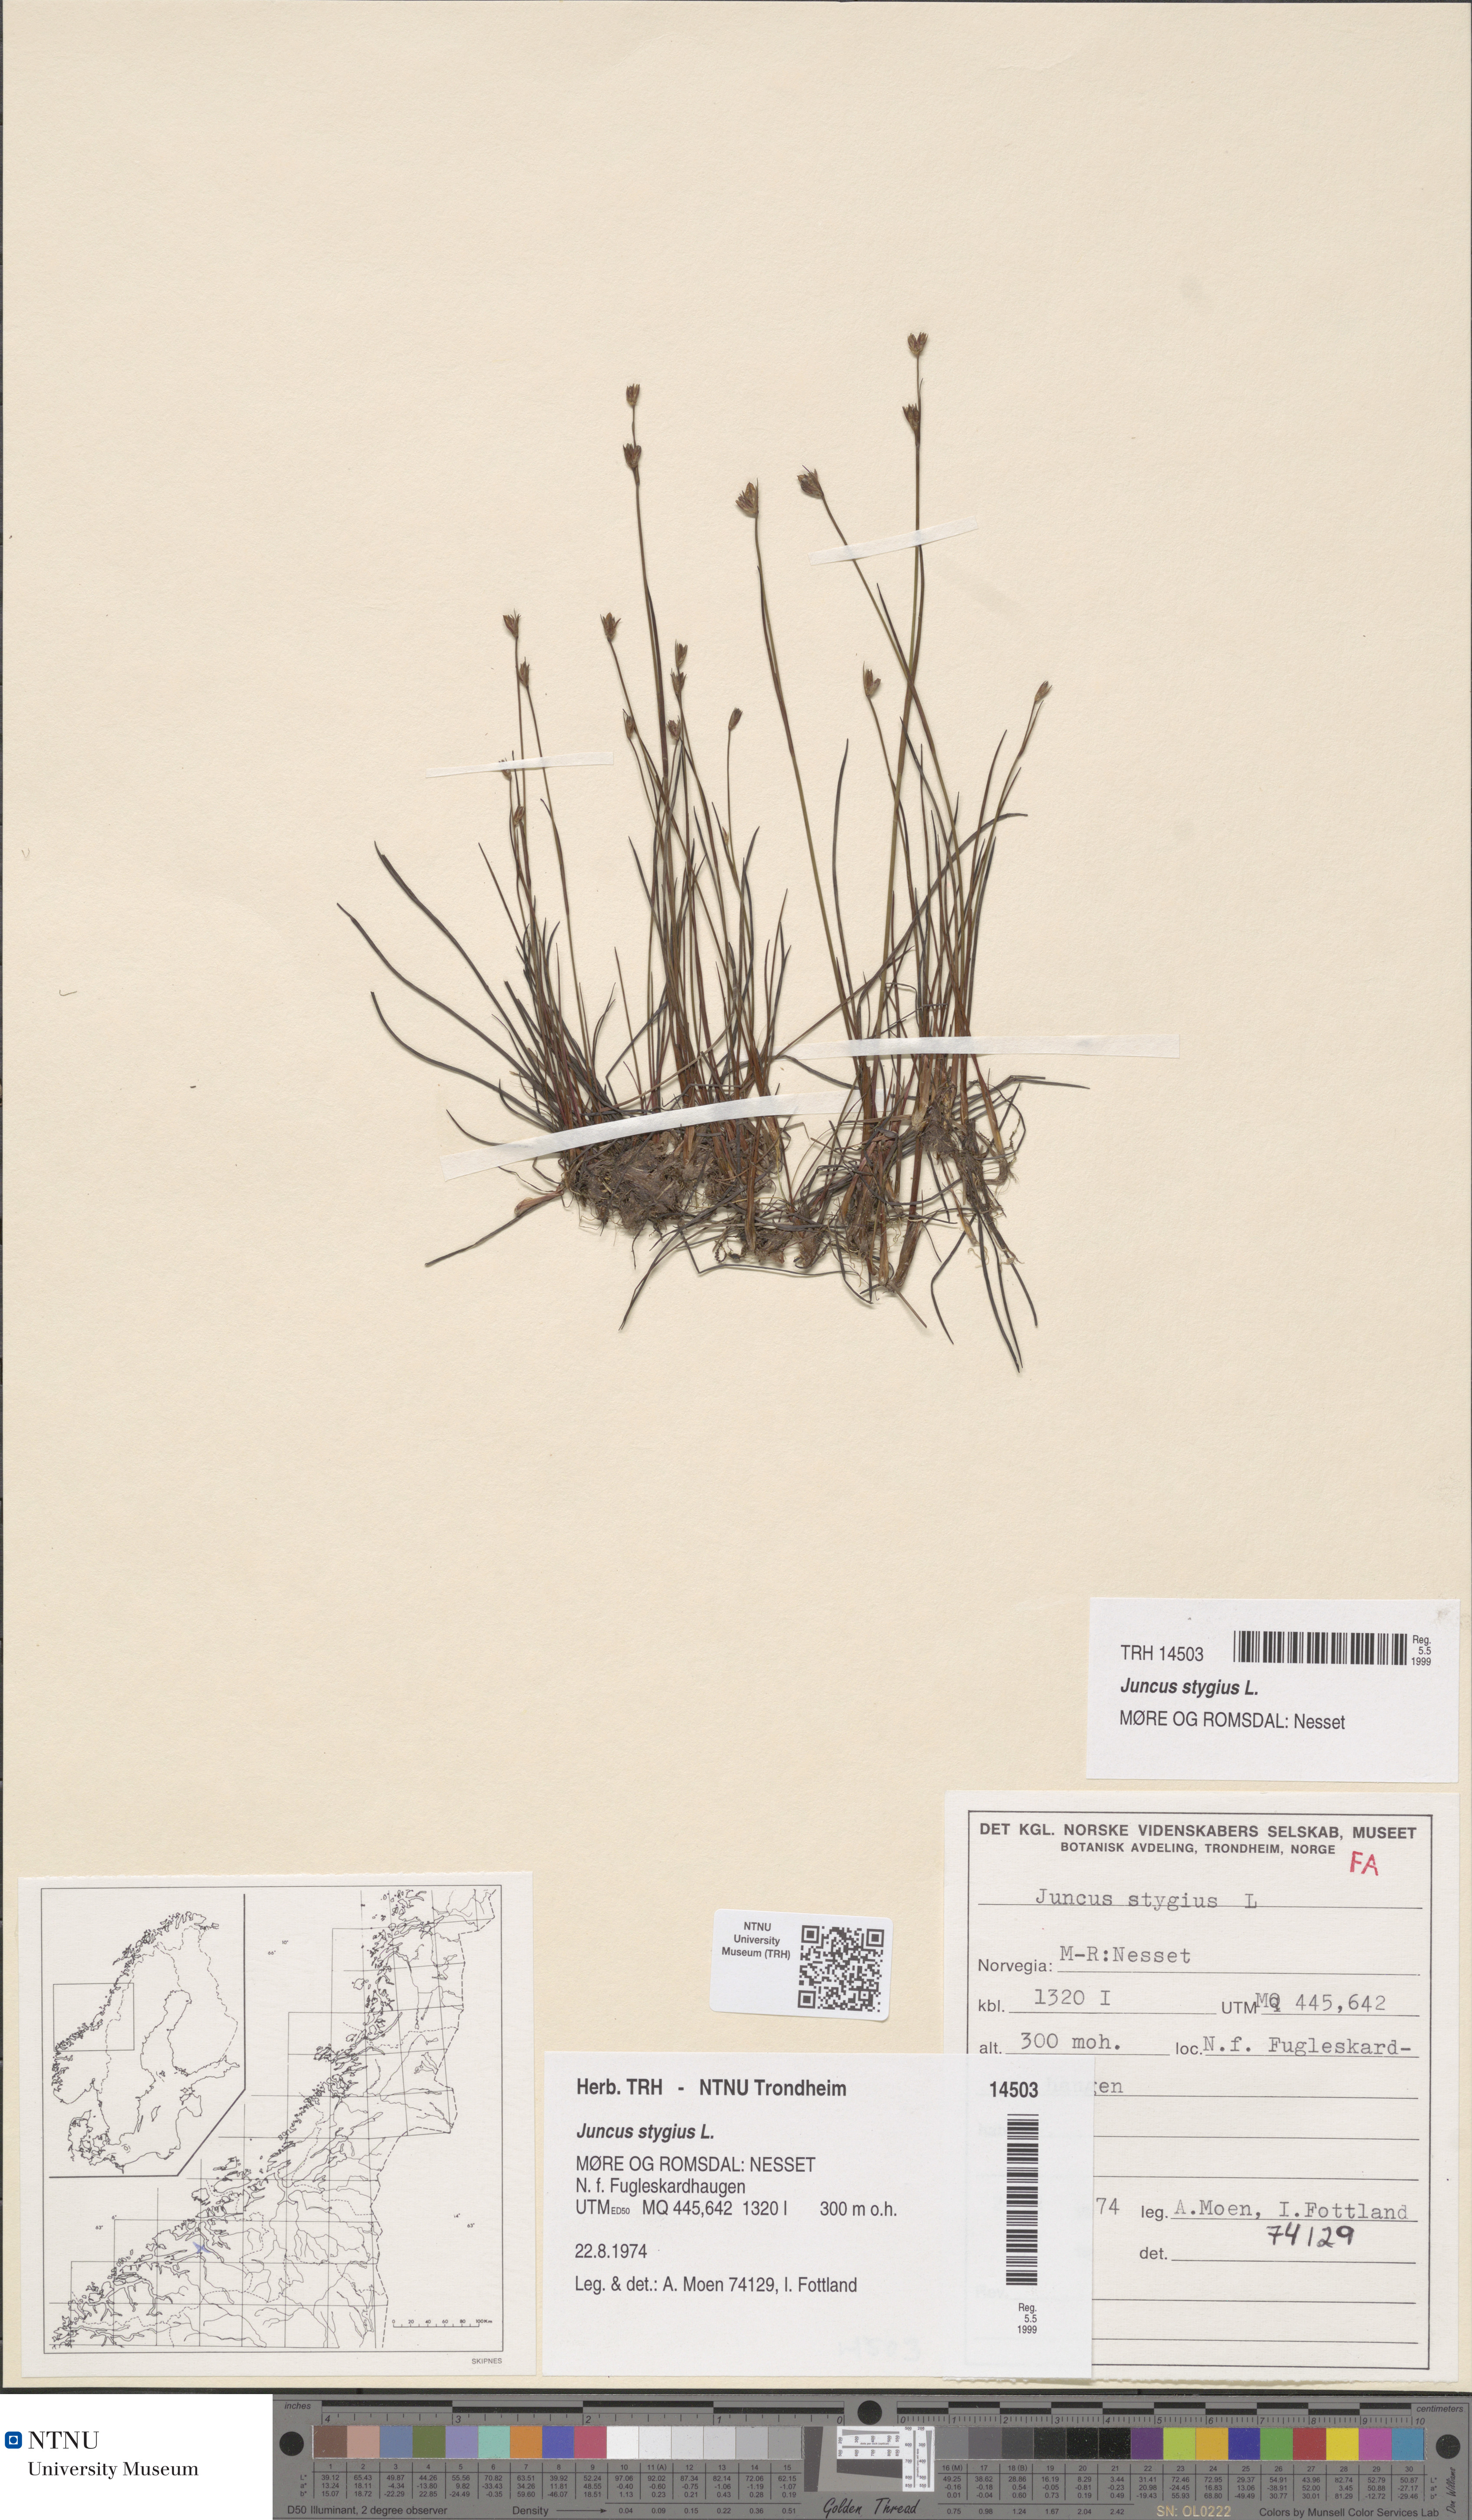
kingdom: Plantae
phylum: Tracheophyta
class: Liliopsida
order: Poales
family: Juncaceae
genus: Juncus
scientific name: Juncus stygius
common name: Bog rush
